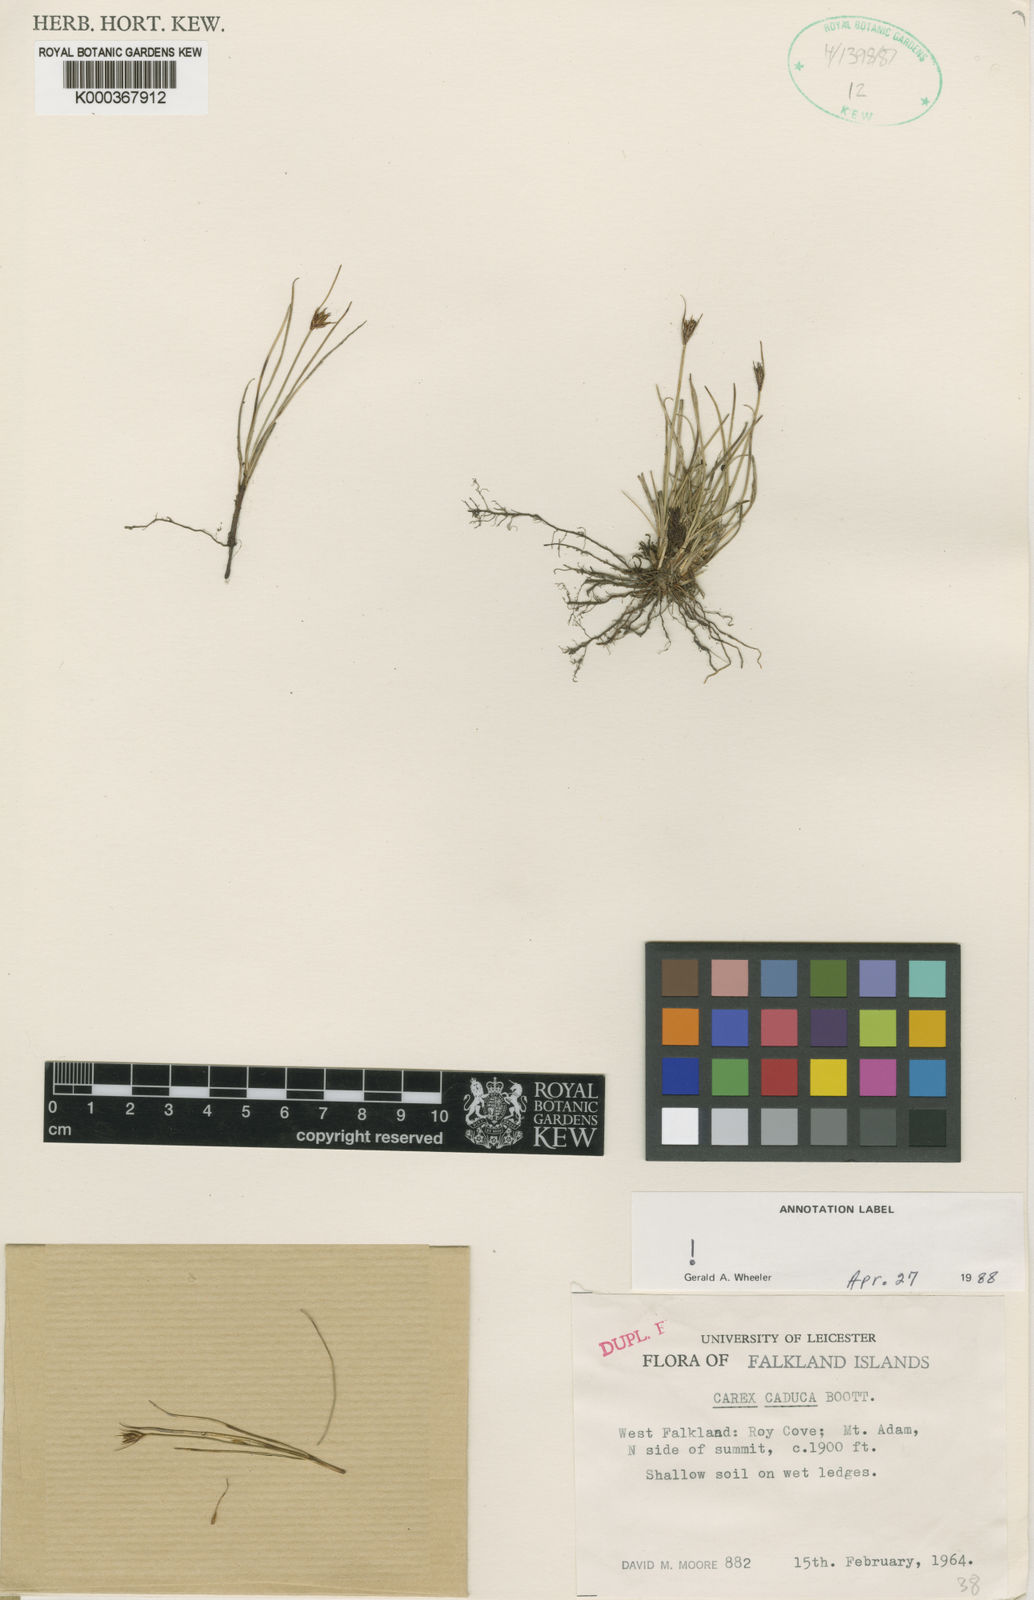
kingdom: Plantae
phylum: Tracheophyta
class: Liliopsida
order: Poales
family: Cyperaceae
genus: Carex
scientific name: Carex caduca
